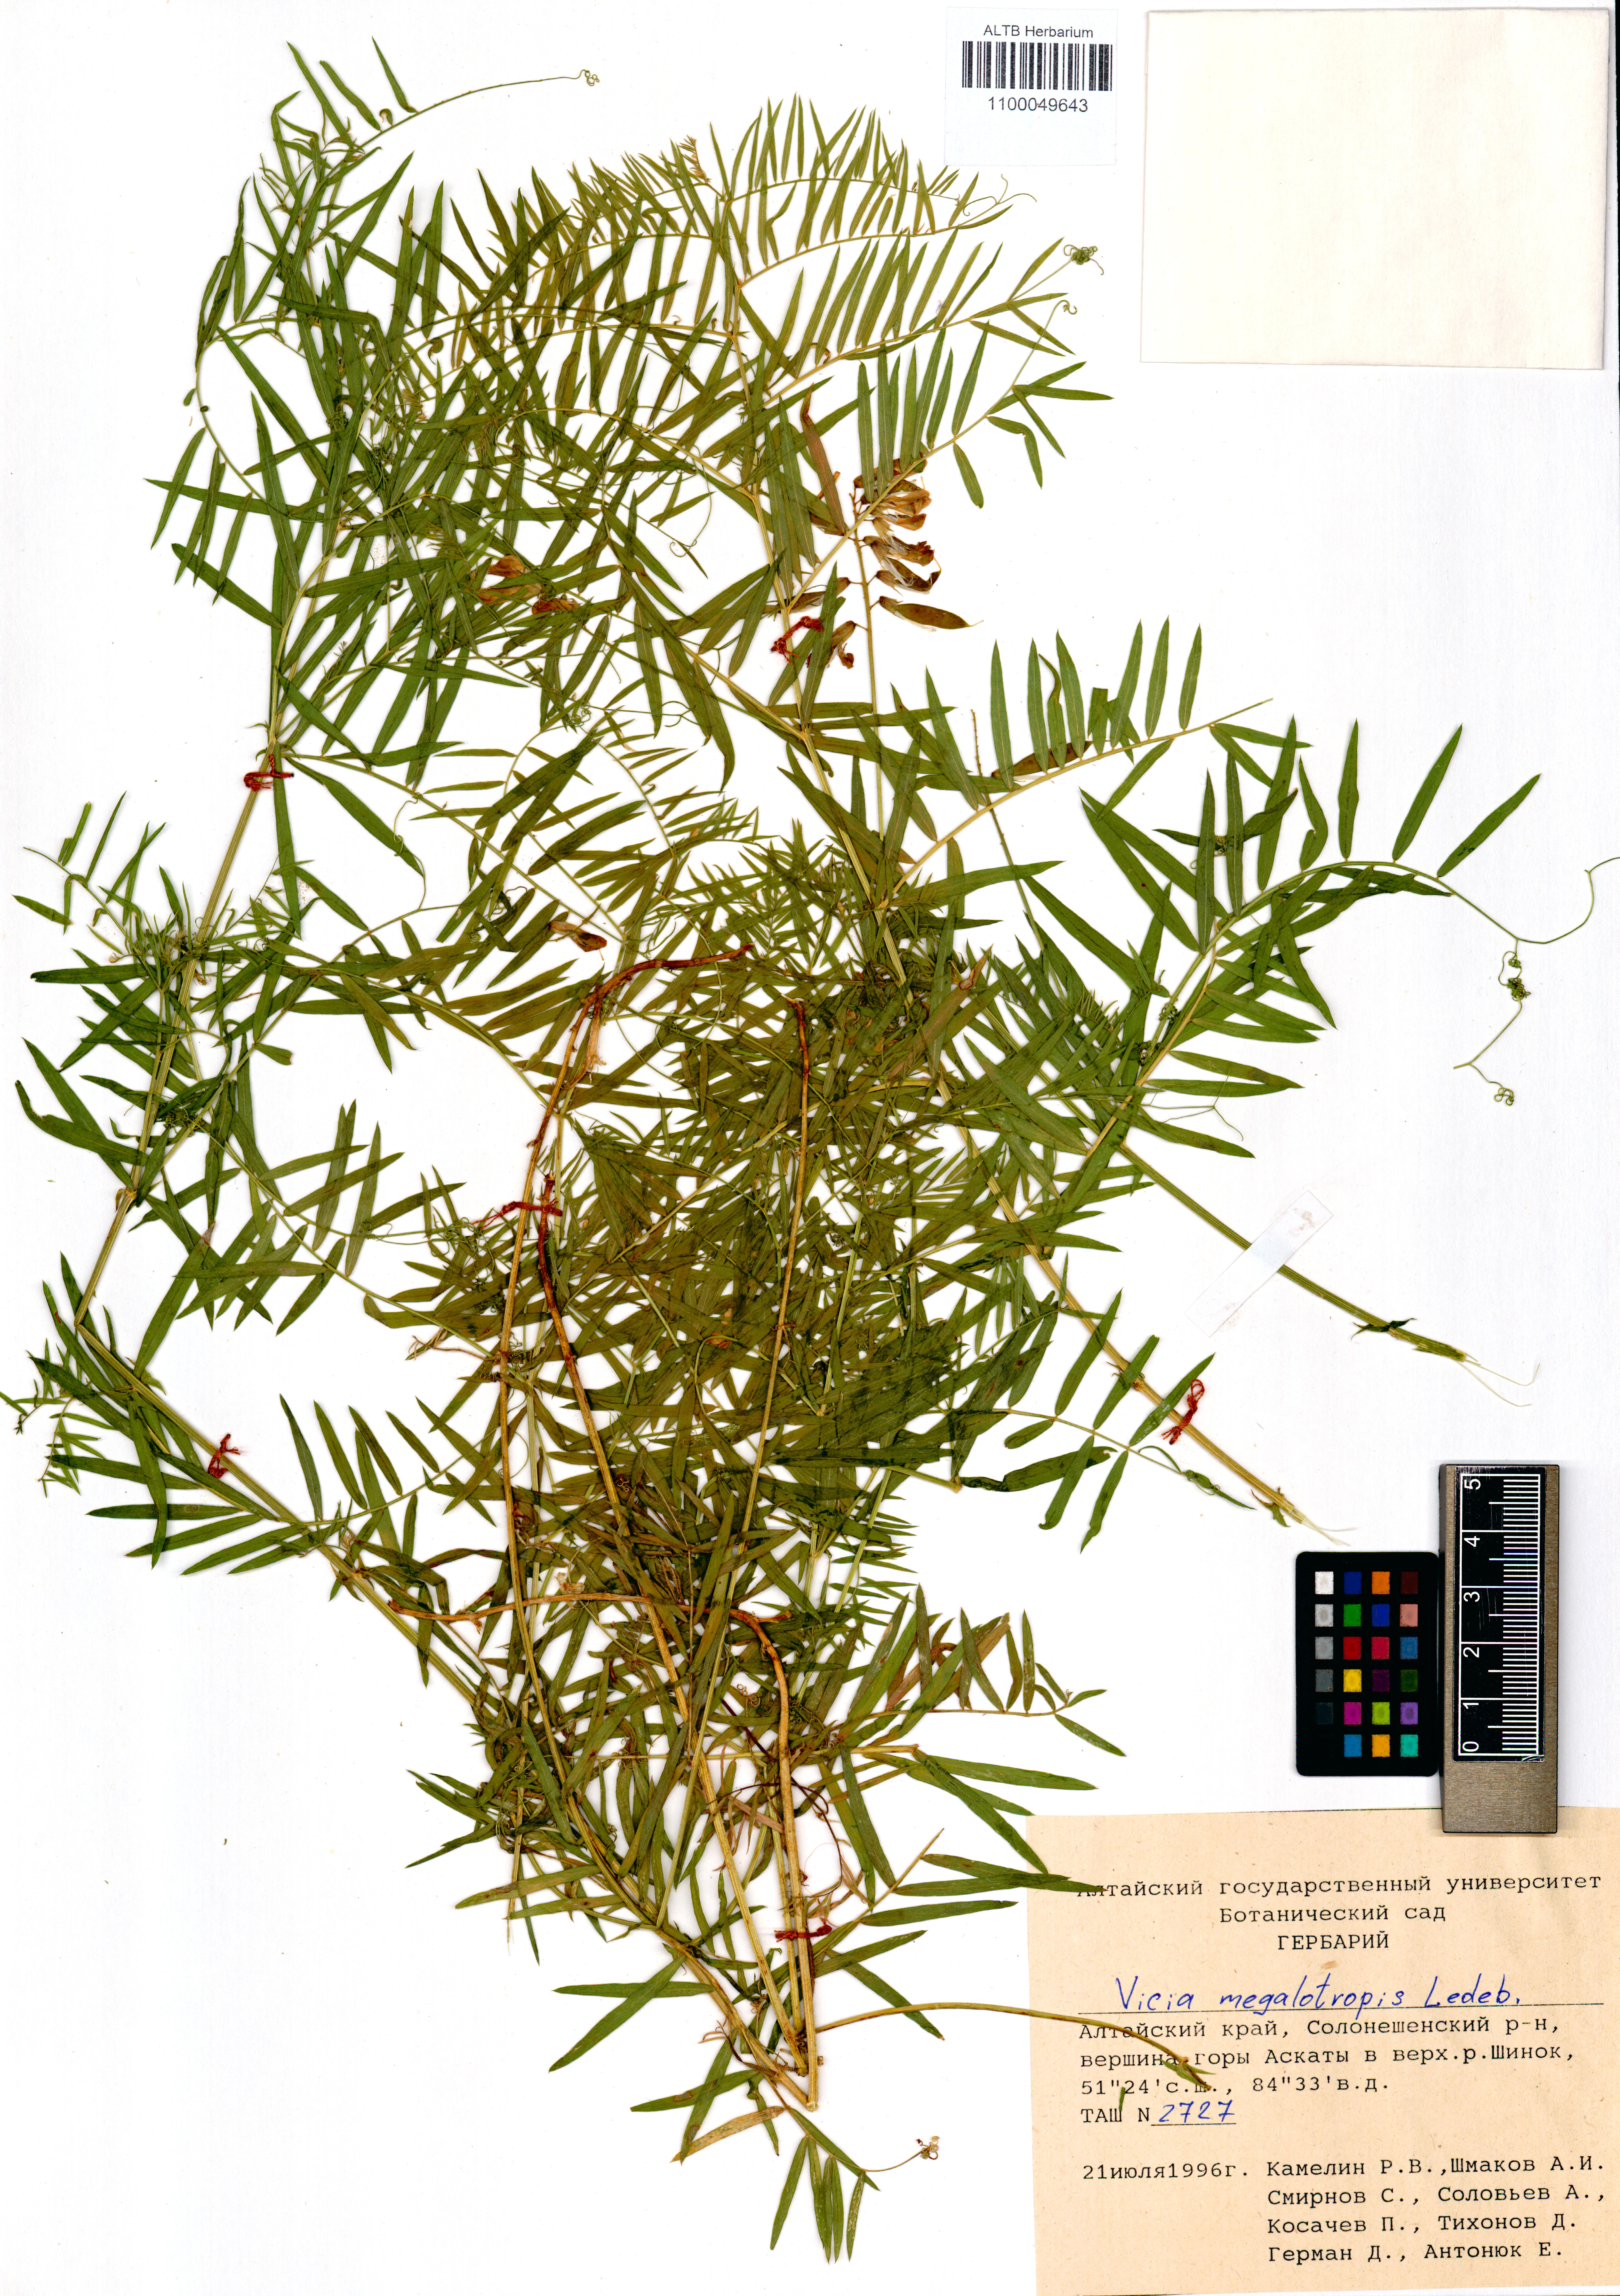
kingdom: Plantae
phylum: Tracheophyta
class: Magnoliopsida
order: Fabales
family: Fabaceae
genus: Vicia
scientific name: Vicia megalotropis
